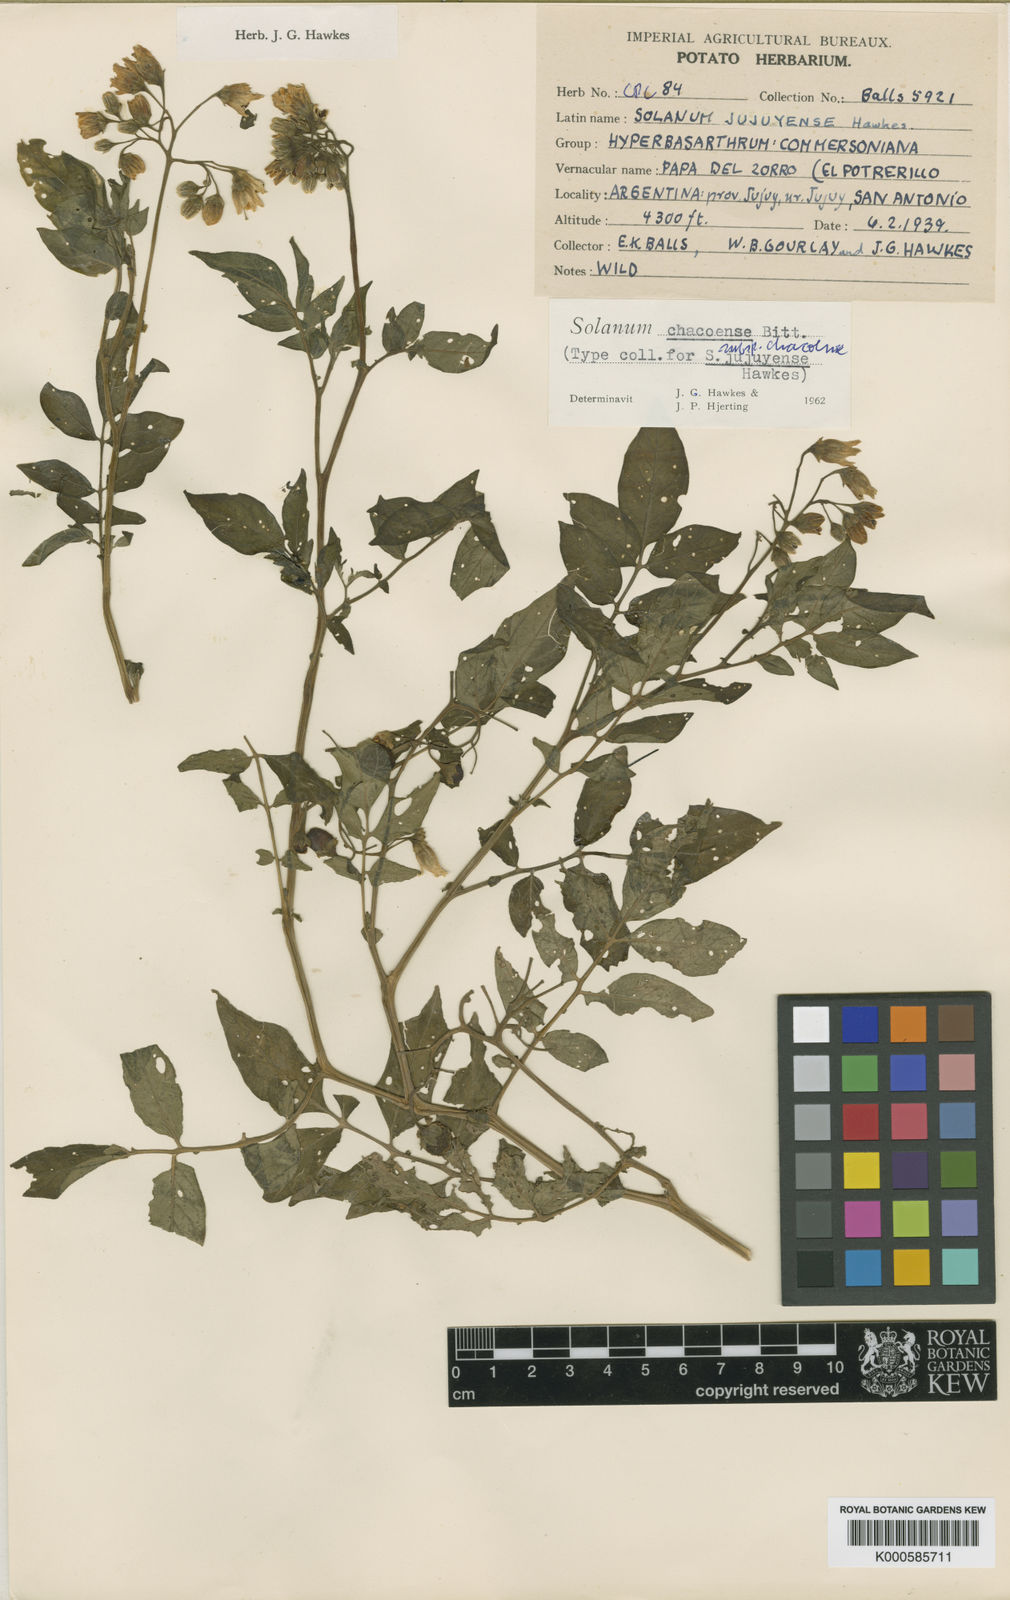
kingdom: Plantae
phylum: Tracheophyta
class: Magnoliopsida
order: Solanales
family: Solanaceae
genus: Solanum
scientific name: Solanum
